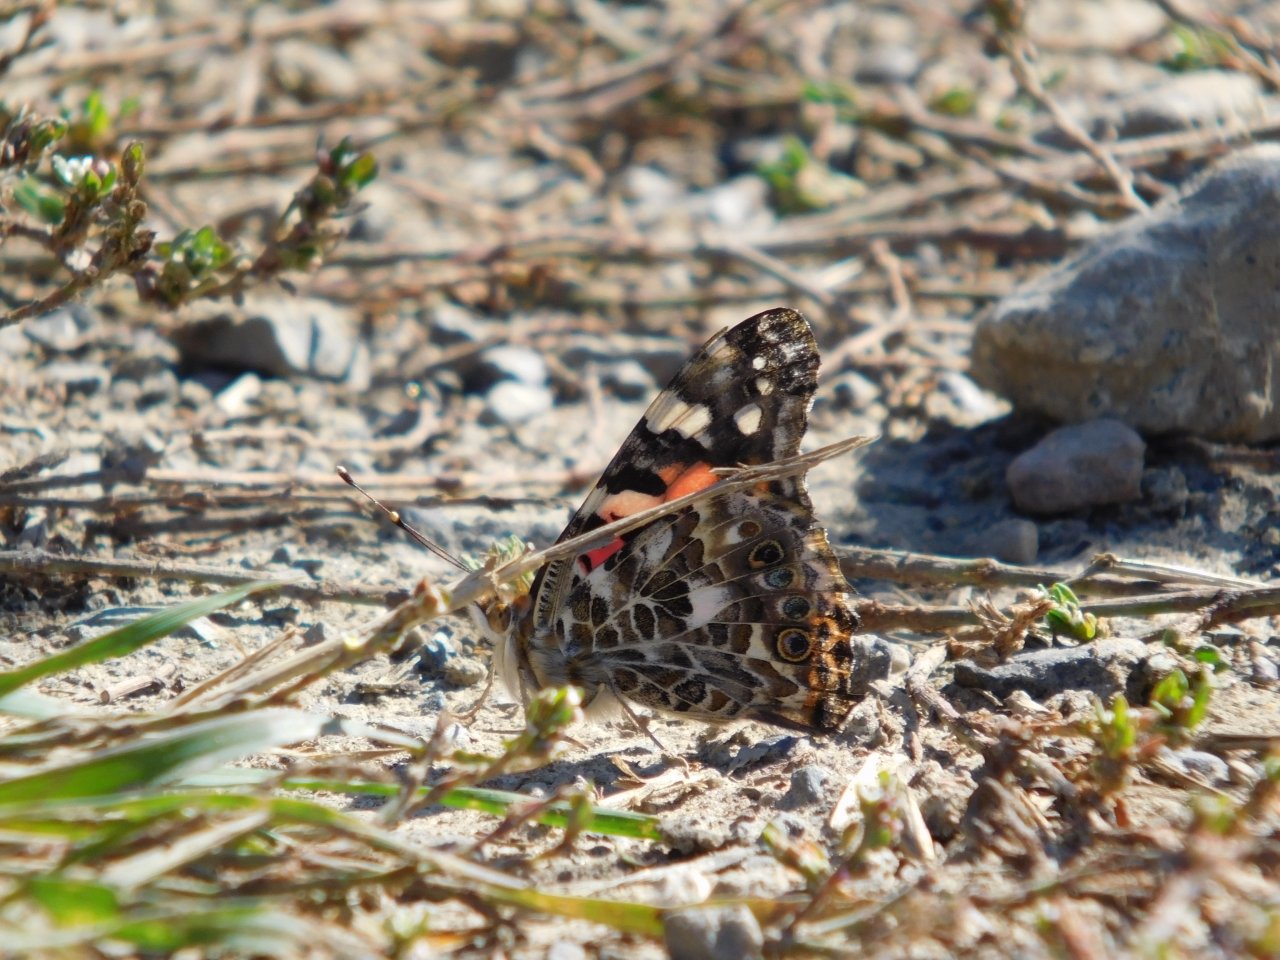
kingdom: Animalia
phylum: Arthropoda
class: Insecta
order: Lepidoptera
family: Nymphalidae
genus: Vanessa
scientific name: Vanessa cardui
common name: Painted Lady
